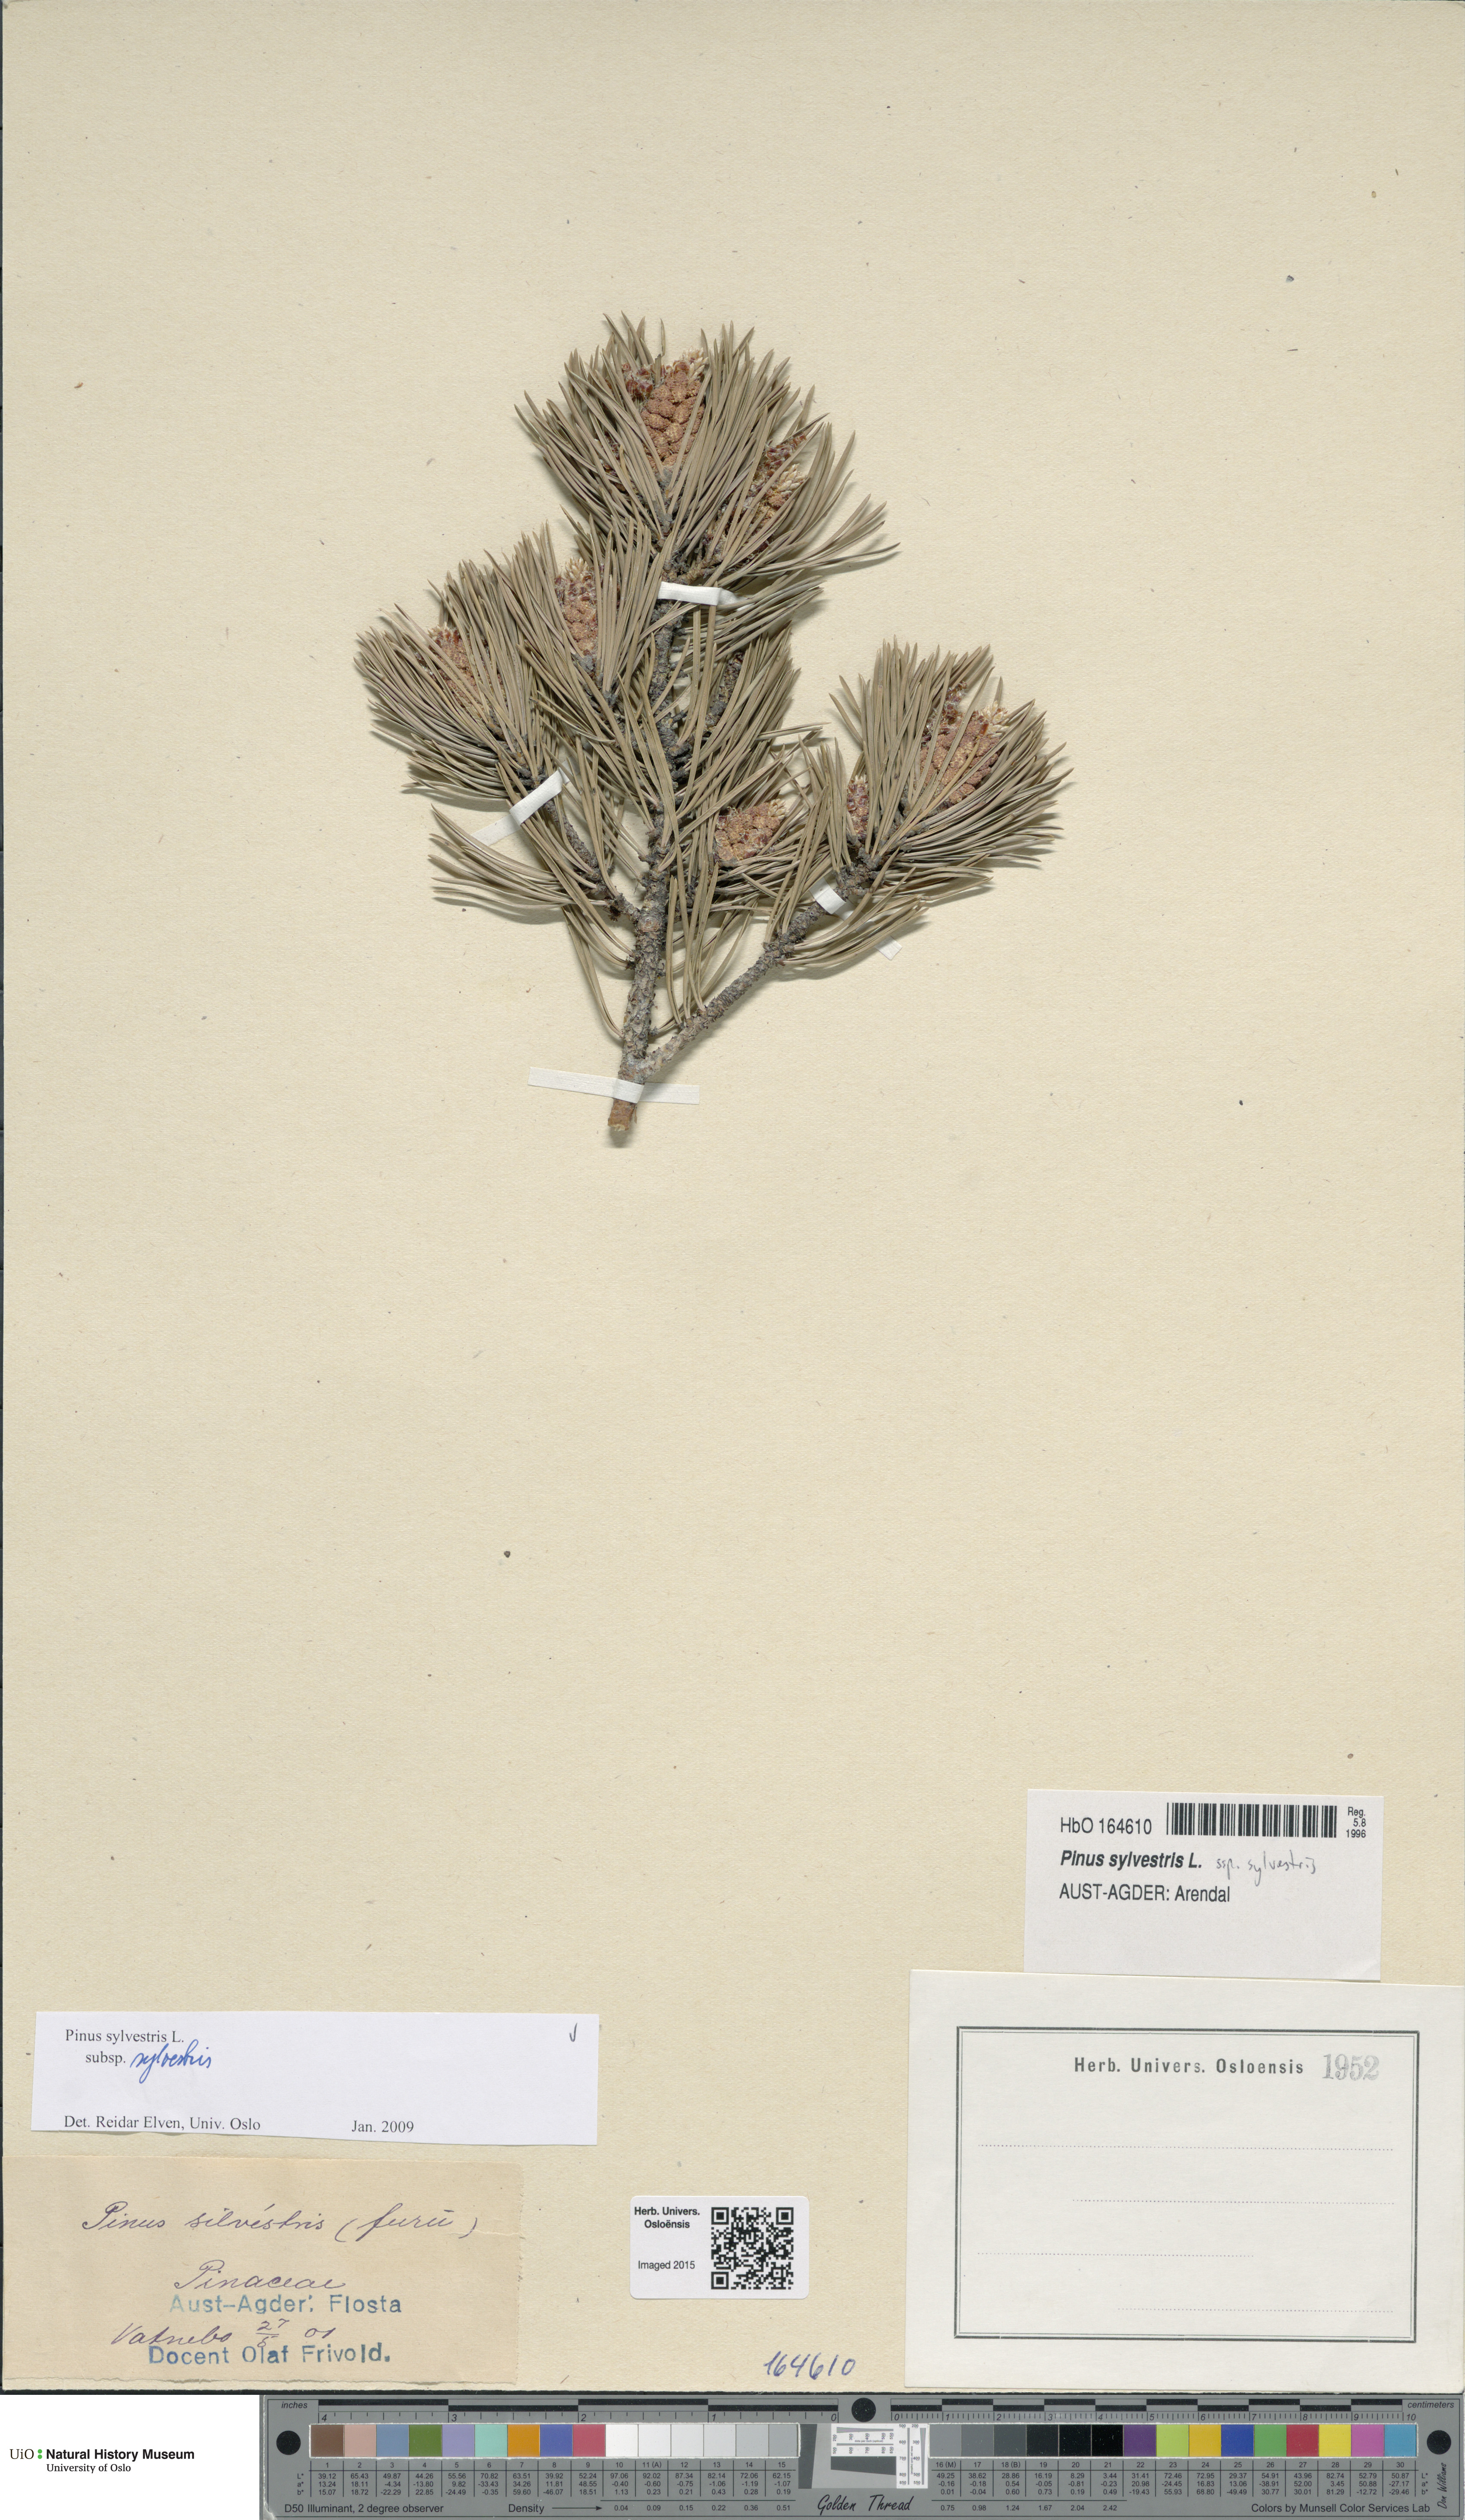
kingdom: Plantae
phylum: Tracheophyta
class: Pinopsida
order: Pinales
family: Pinaceae
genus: Pinus
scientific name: Pinus sylvestris
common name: Scots pine
